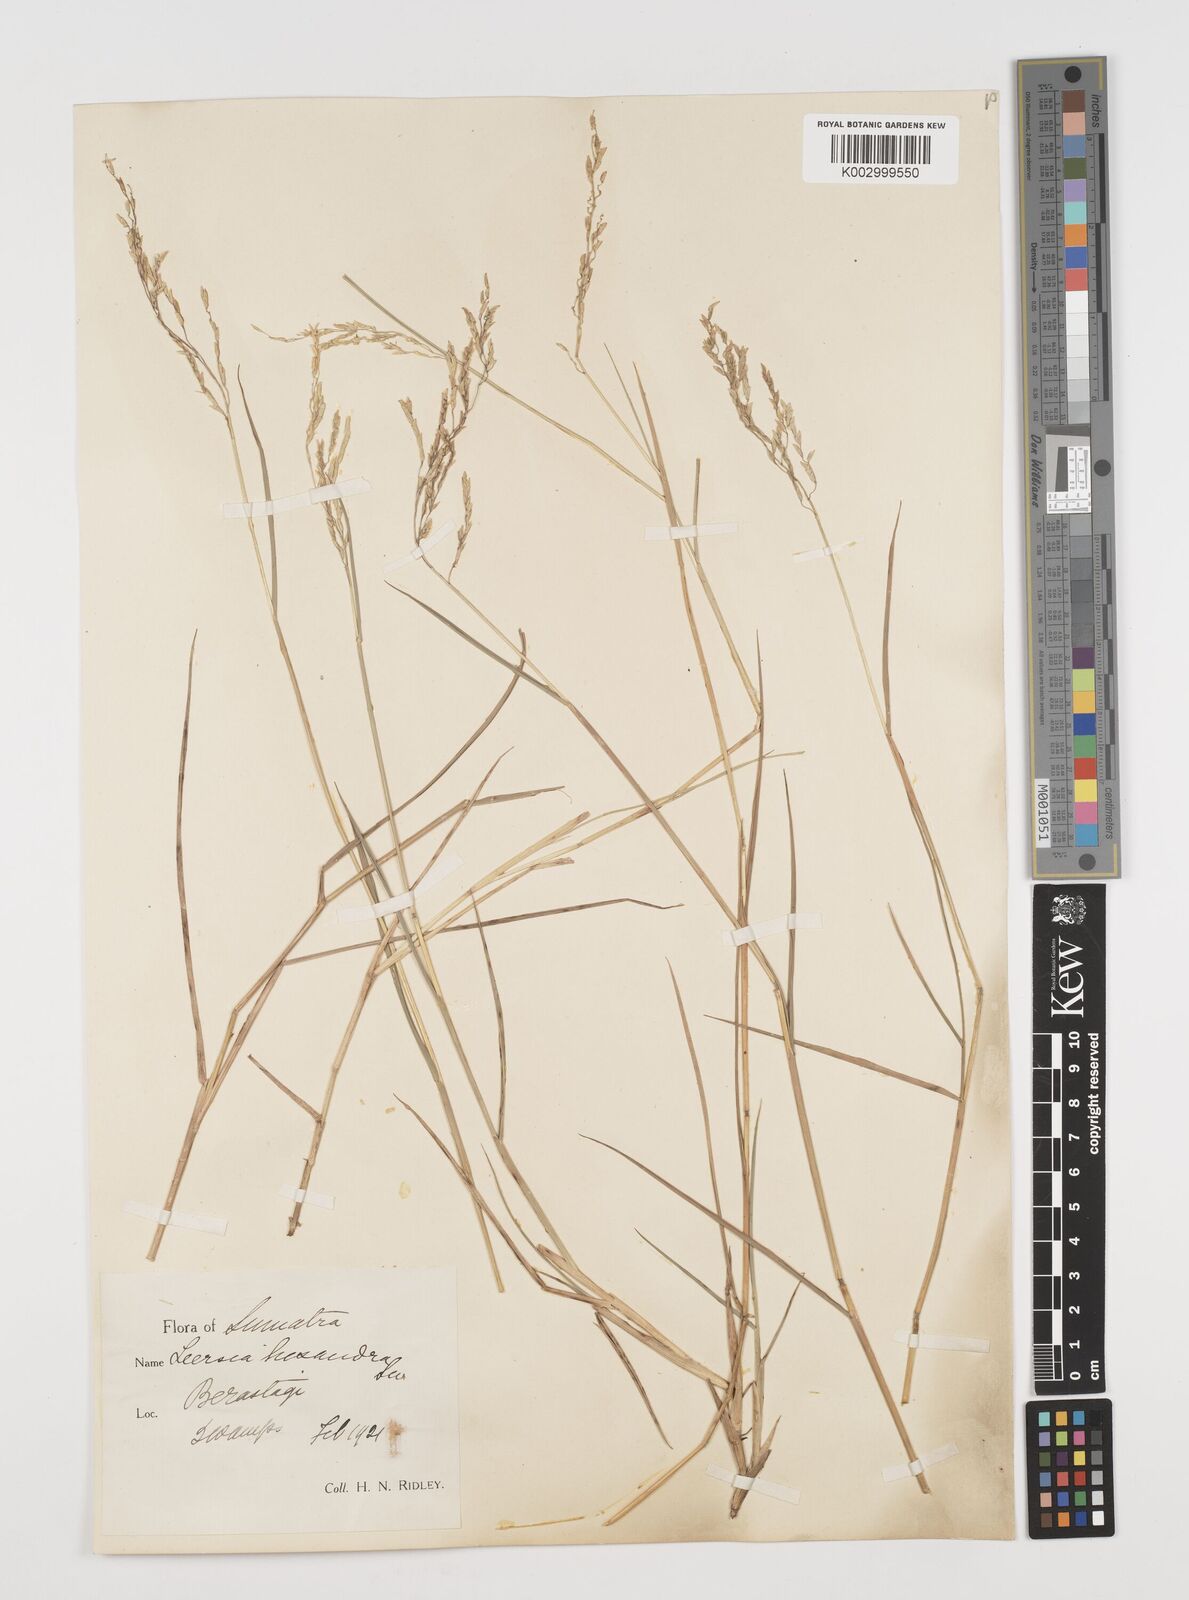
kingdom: Plantae
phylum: Tracheophyta
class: Liliopsida
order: Poales
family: Poaceae
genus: Leersia
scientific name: Leersia hexandra
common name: Southern cut grass
